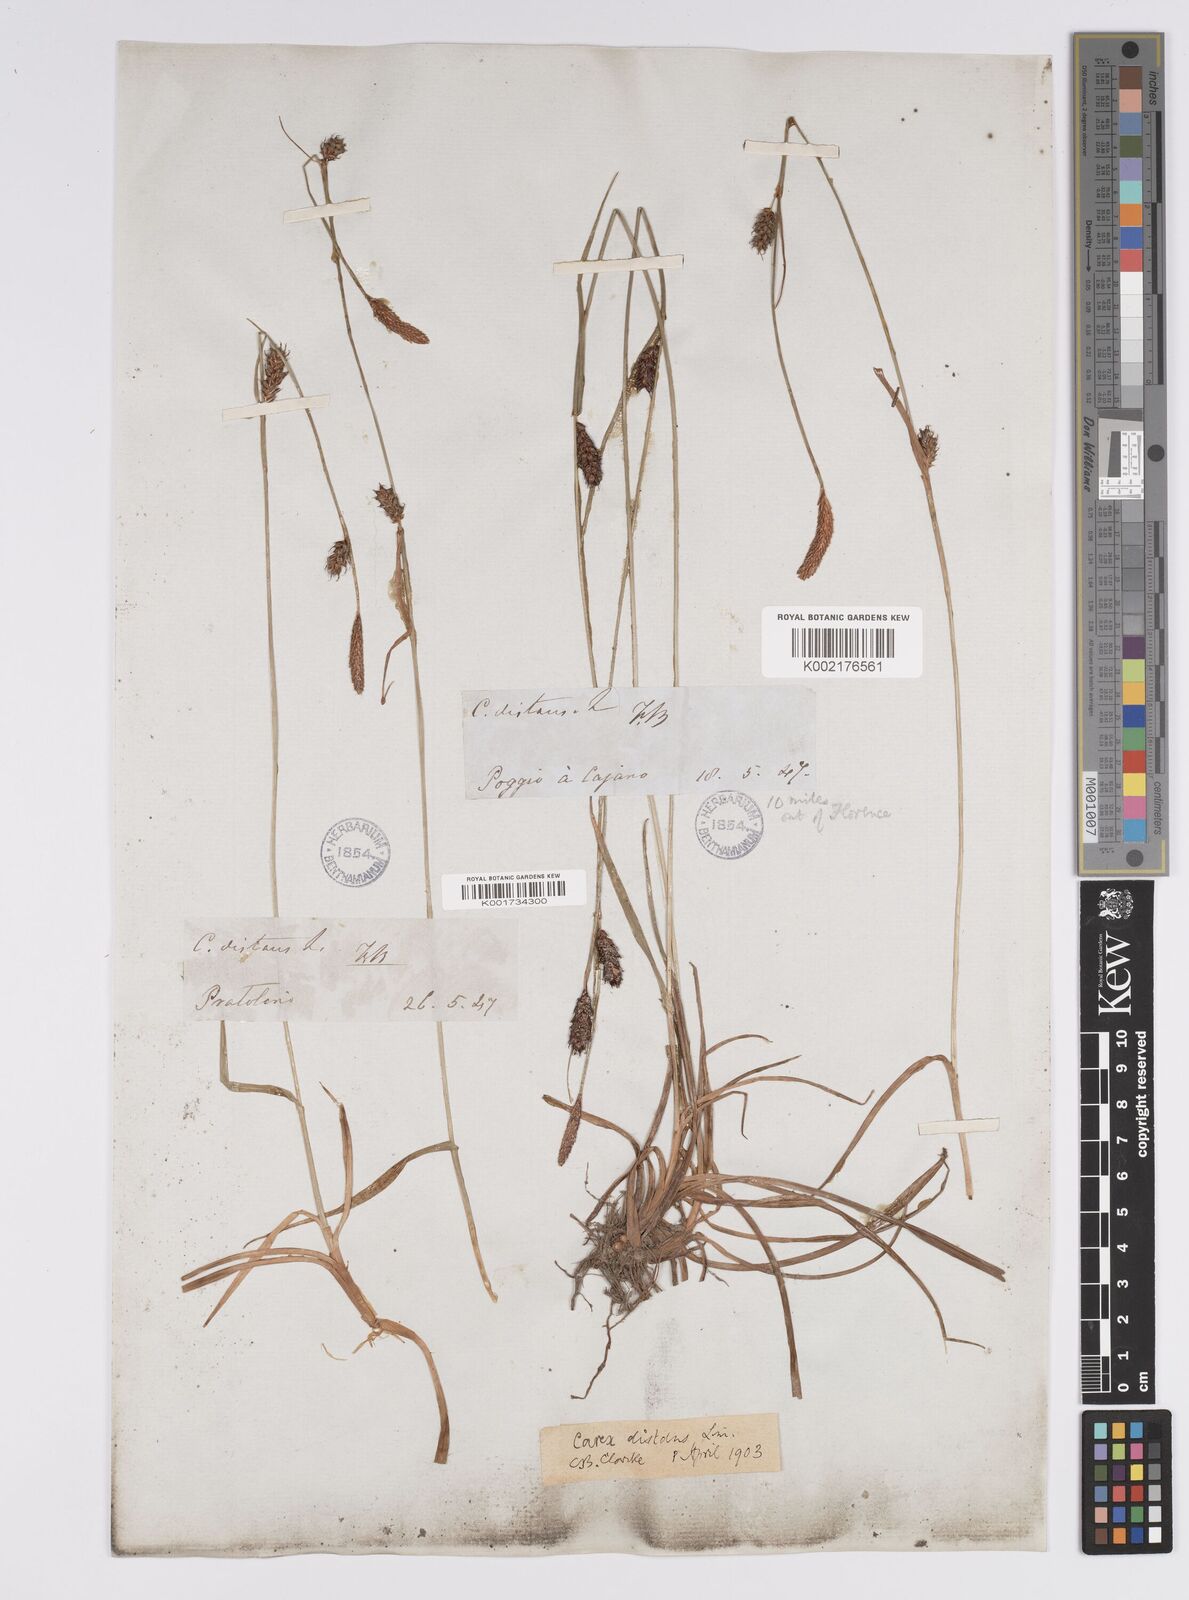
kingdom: Plantae
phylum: Tracheophyta
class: Liliopsida
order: Poales
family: Cyperaceae
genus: Carex
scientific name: Carex distans
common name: Distant sedge
